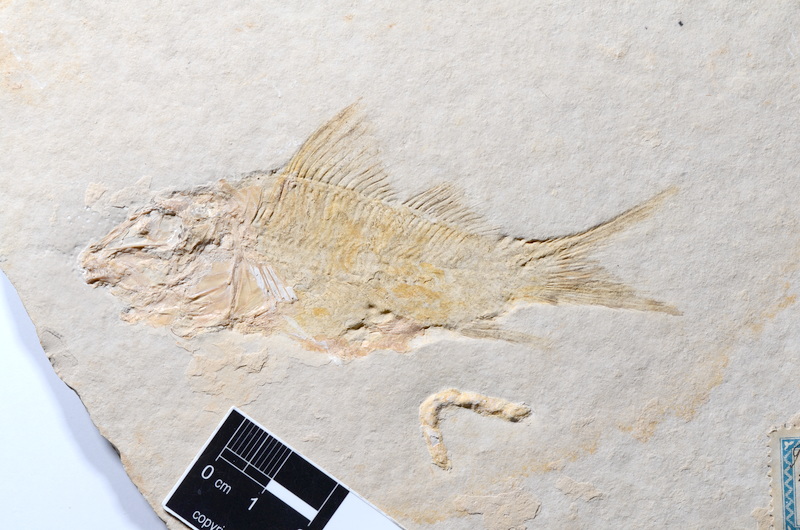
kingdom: Animalia
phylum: Chordata
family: Macrosemiidae
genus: Propterus
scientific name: Propterus elongatus
